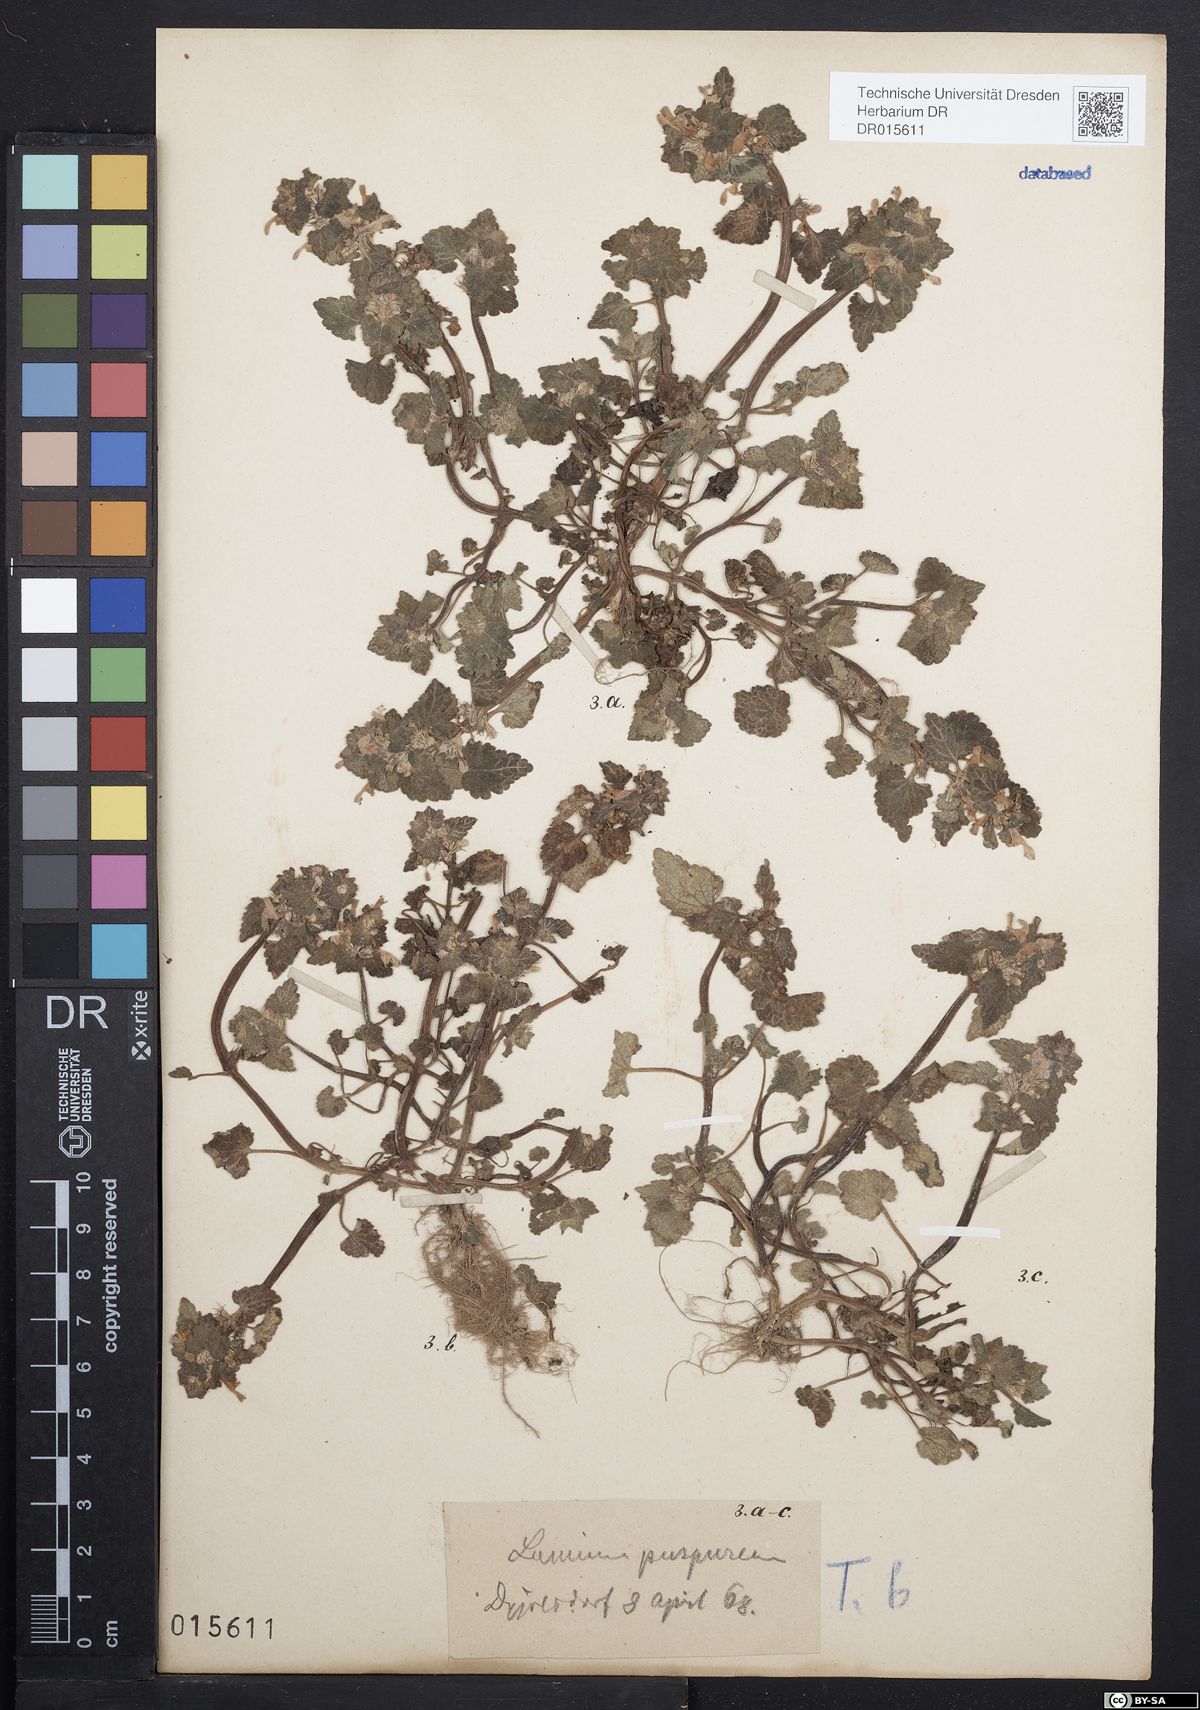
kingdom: Plantae
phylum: Tracheophyta
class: Magnoliopsida
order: Lamiales
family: Lamiaceae
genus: Lamium
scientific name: Lamium purpureum
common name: Red dead-nettle
